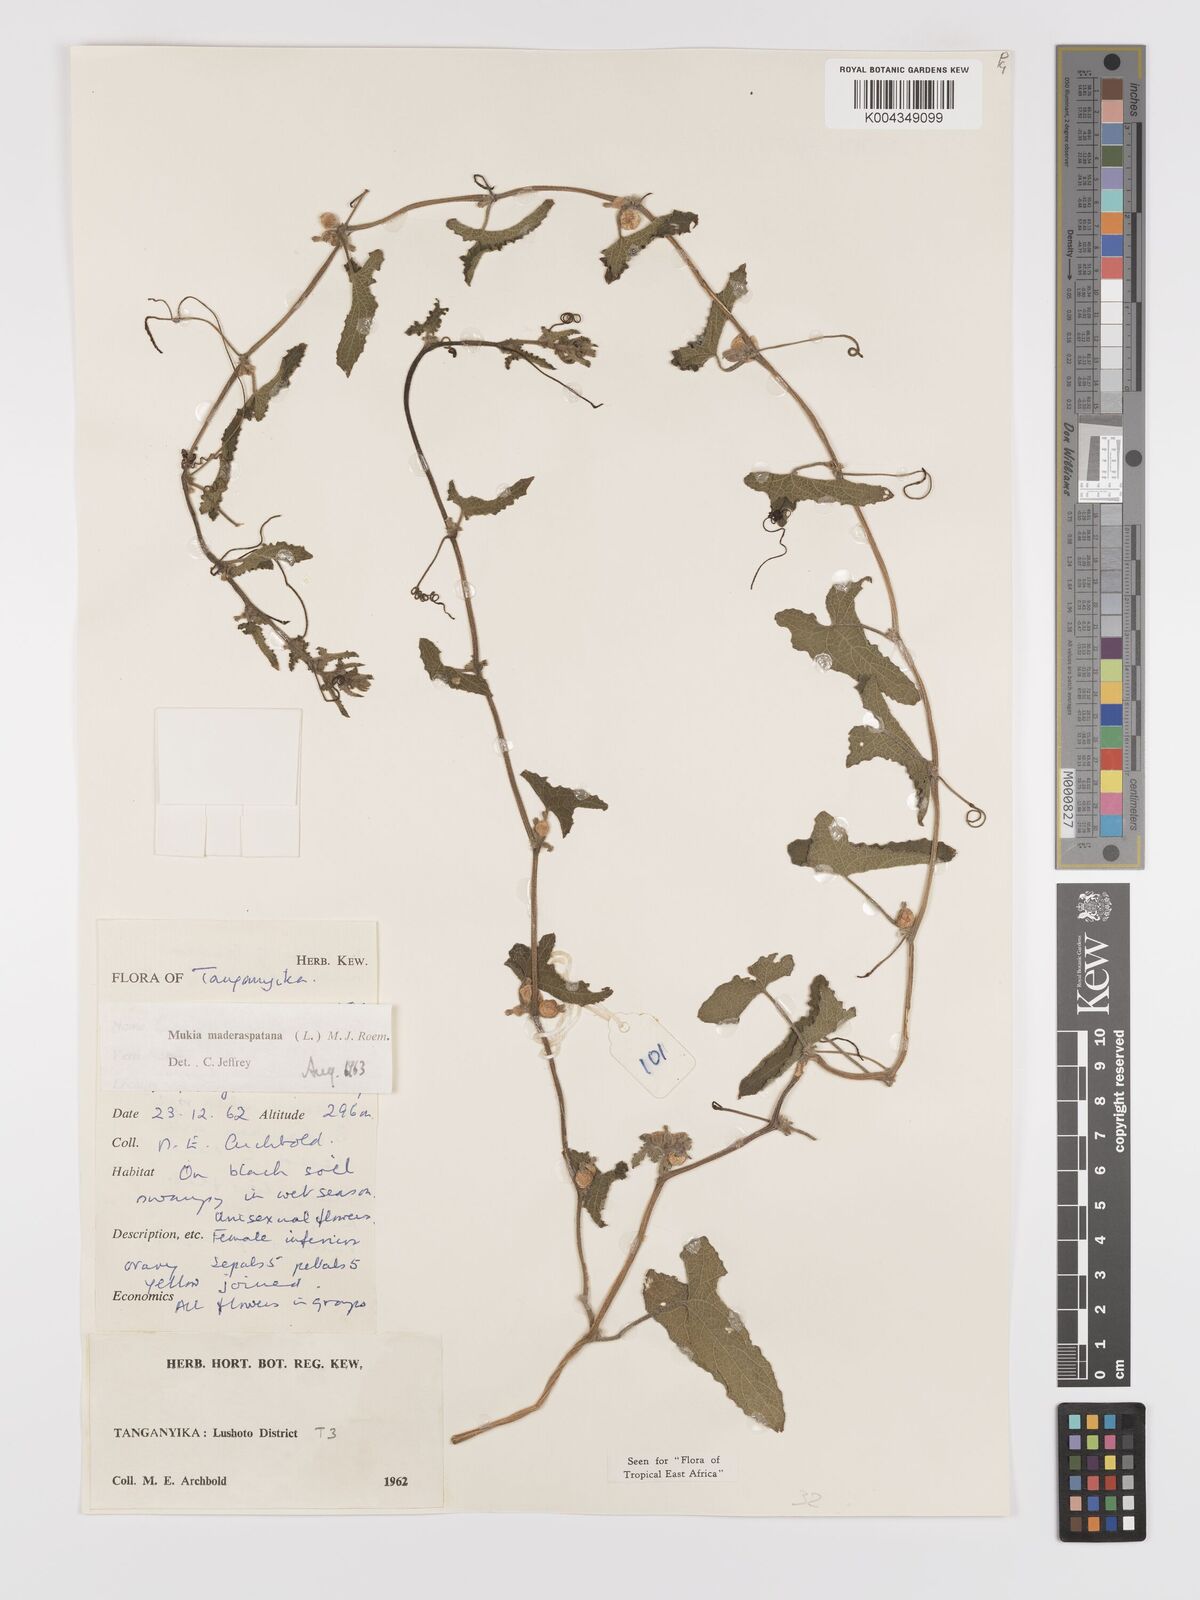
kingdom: Plantae
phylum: Tracheophyta
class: Magnoliopsida
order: Cucurbitales
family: Cucurbitaceae
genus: Cucumis
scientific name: Cucumis maderaspatanus
